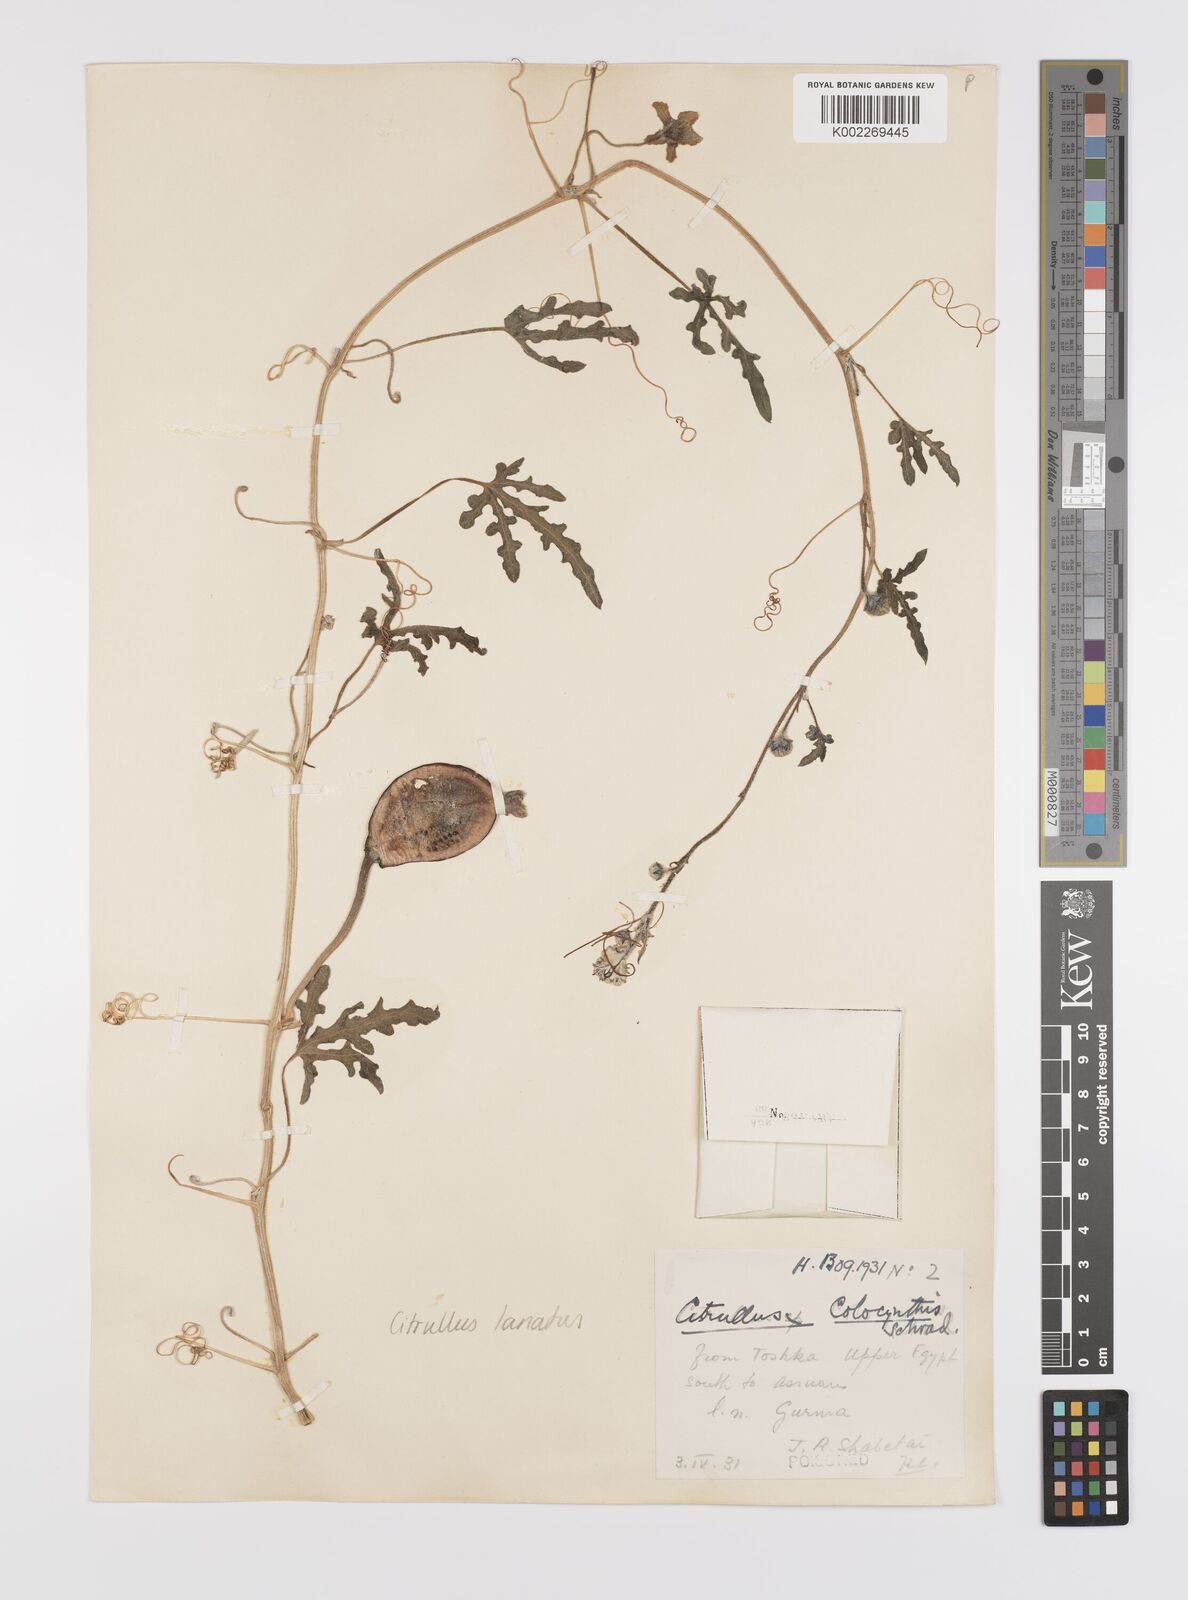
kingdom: Plantae
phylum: Tracheophyta
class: Magnoliopsida
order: Cucurbitales
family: Cucurbitaceae
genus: Citrullus
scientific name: Citrullus lanatus
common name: Watermelon
